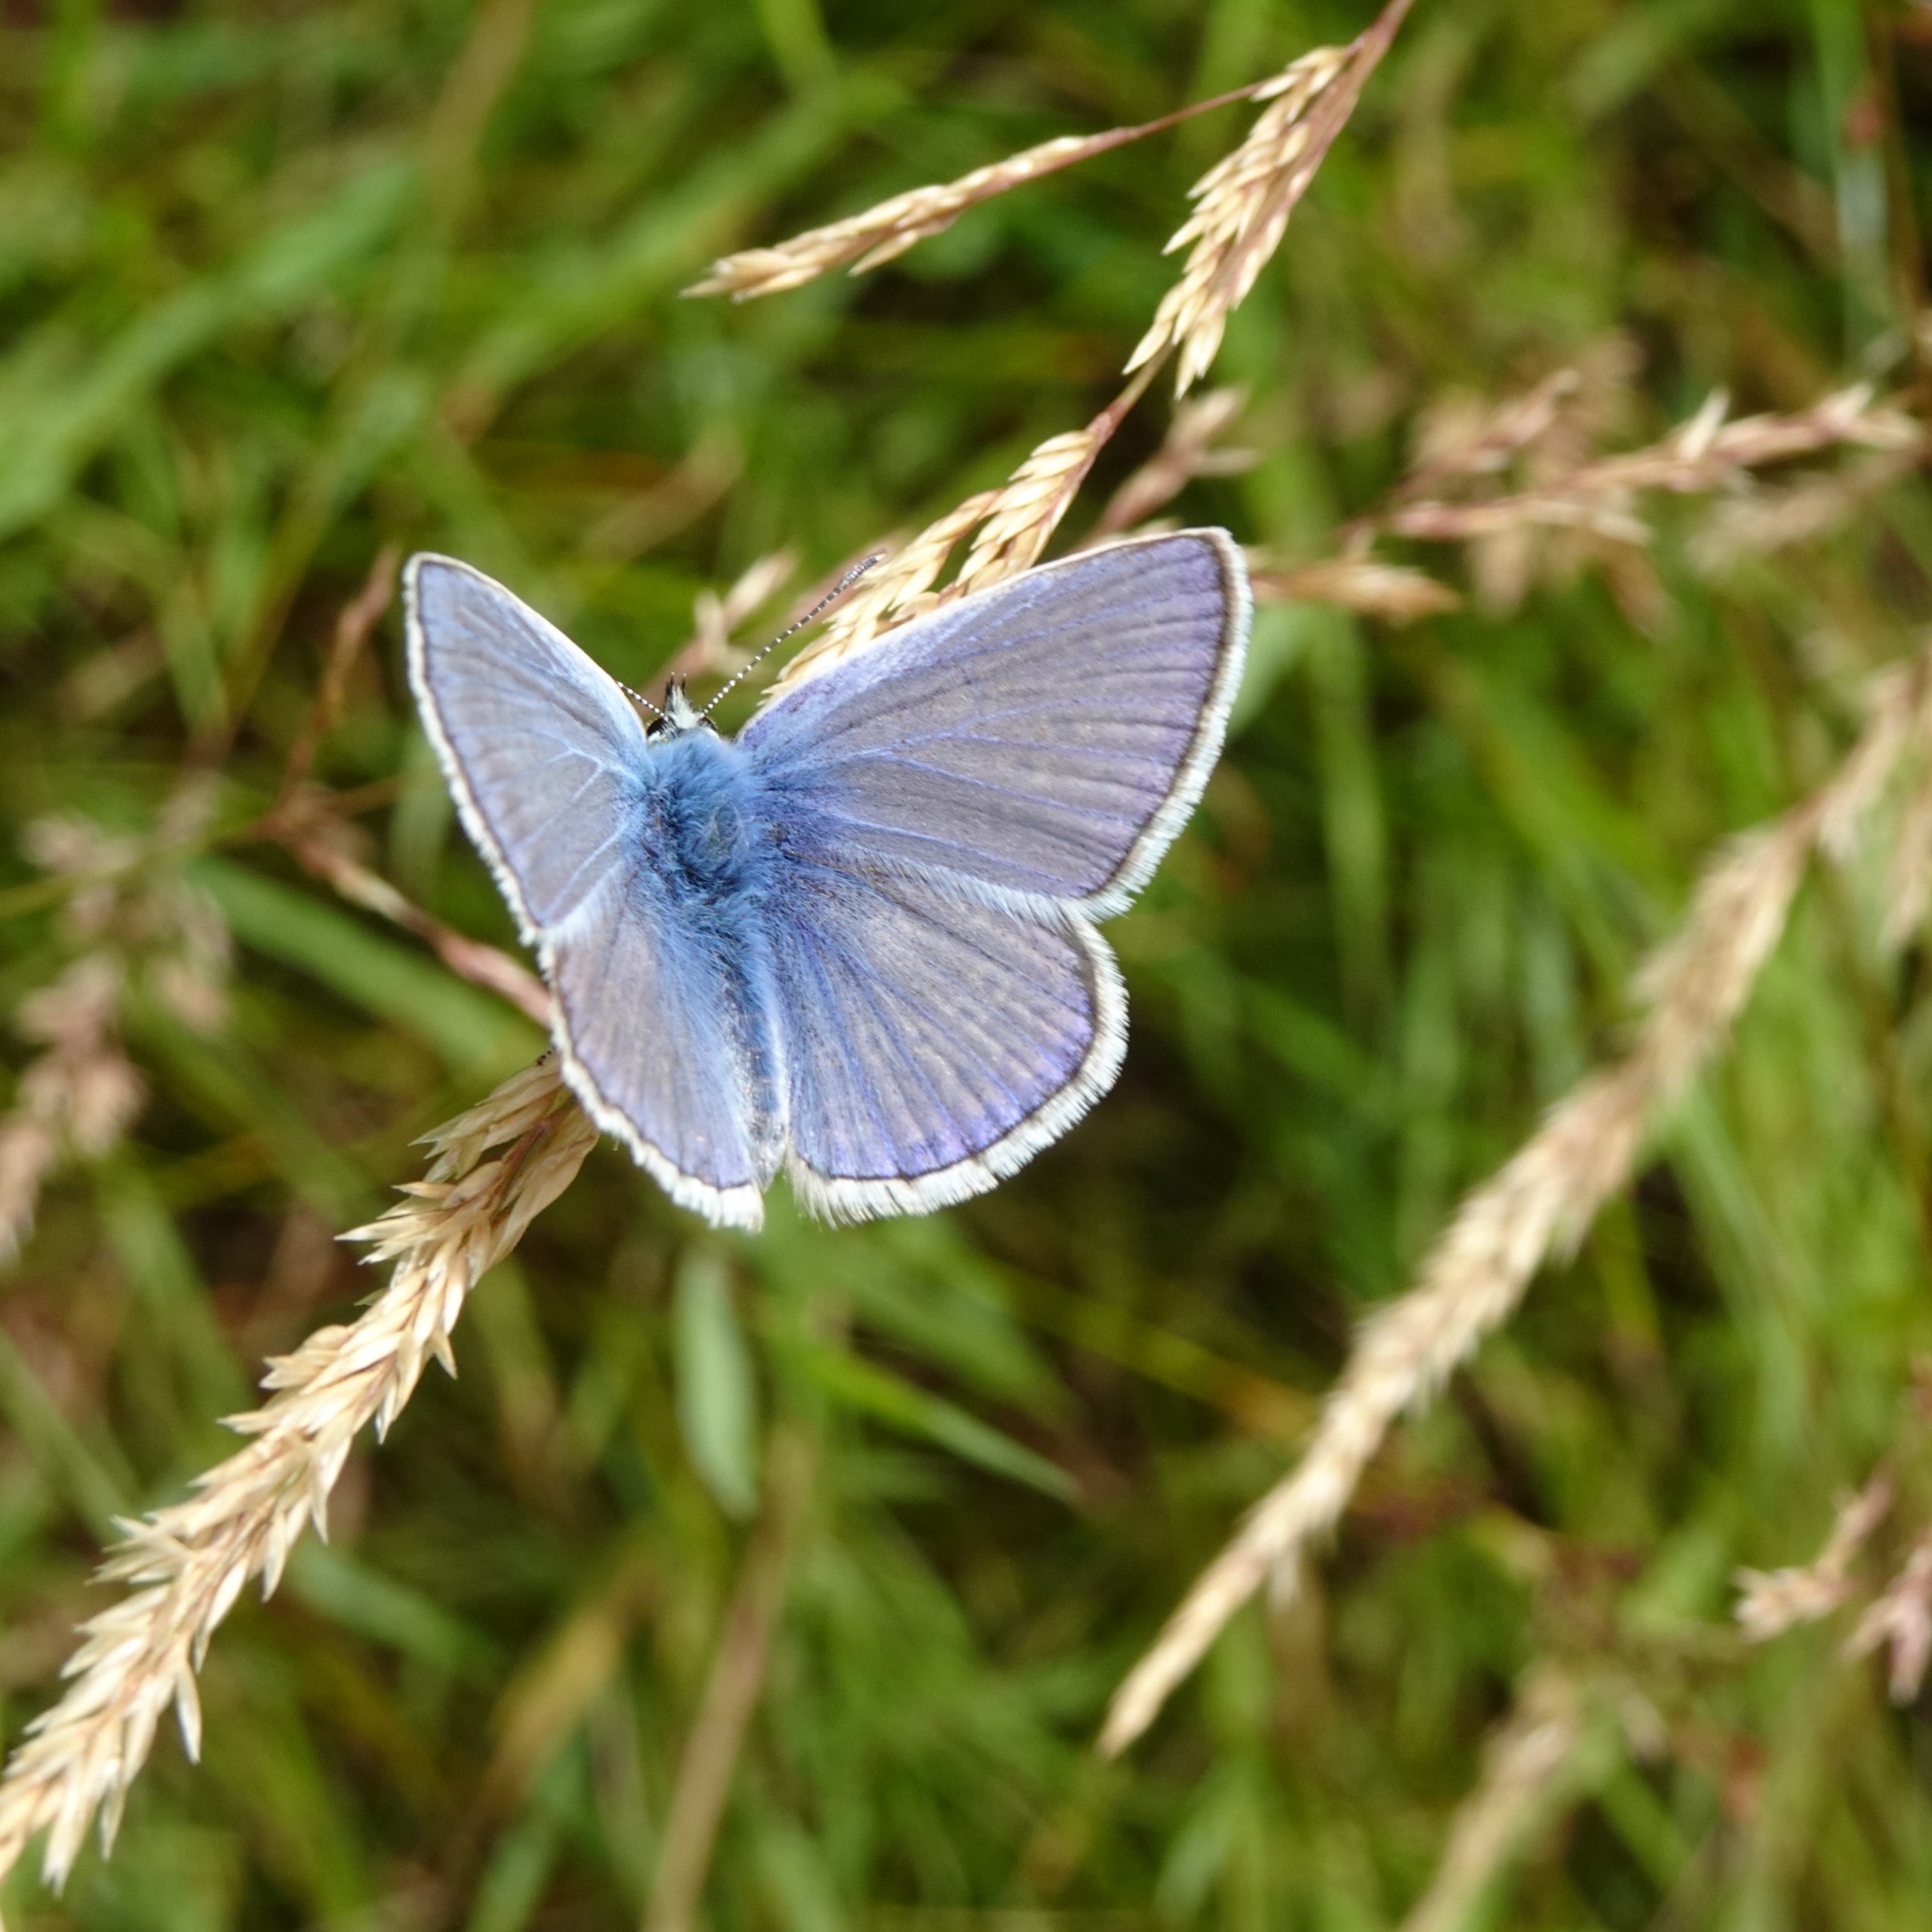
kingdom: Animalia
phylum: Arthropoda
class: Insecta
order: Lepidoptera
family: Lycaenidae
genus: Polyommatus
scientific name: Polyommatus icarus
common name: Almindelig blåfugl
